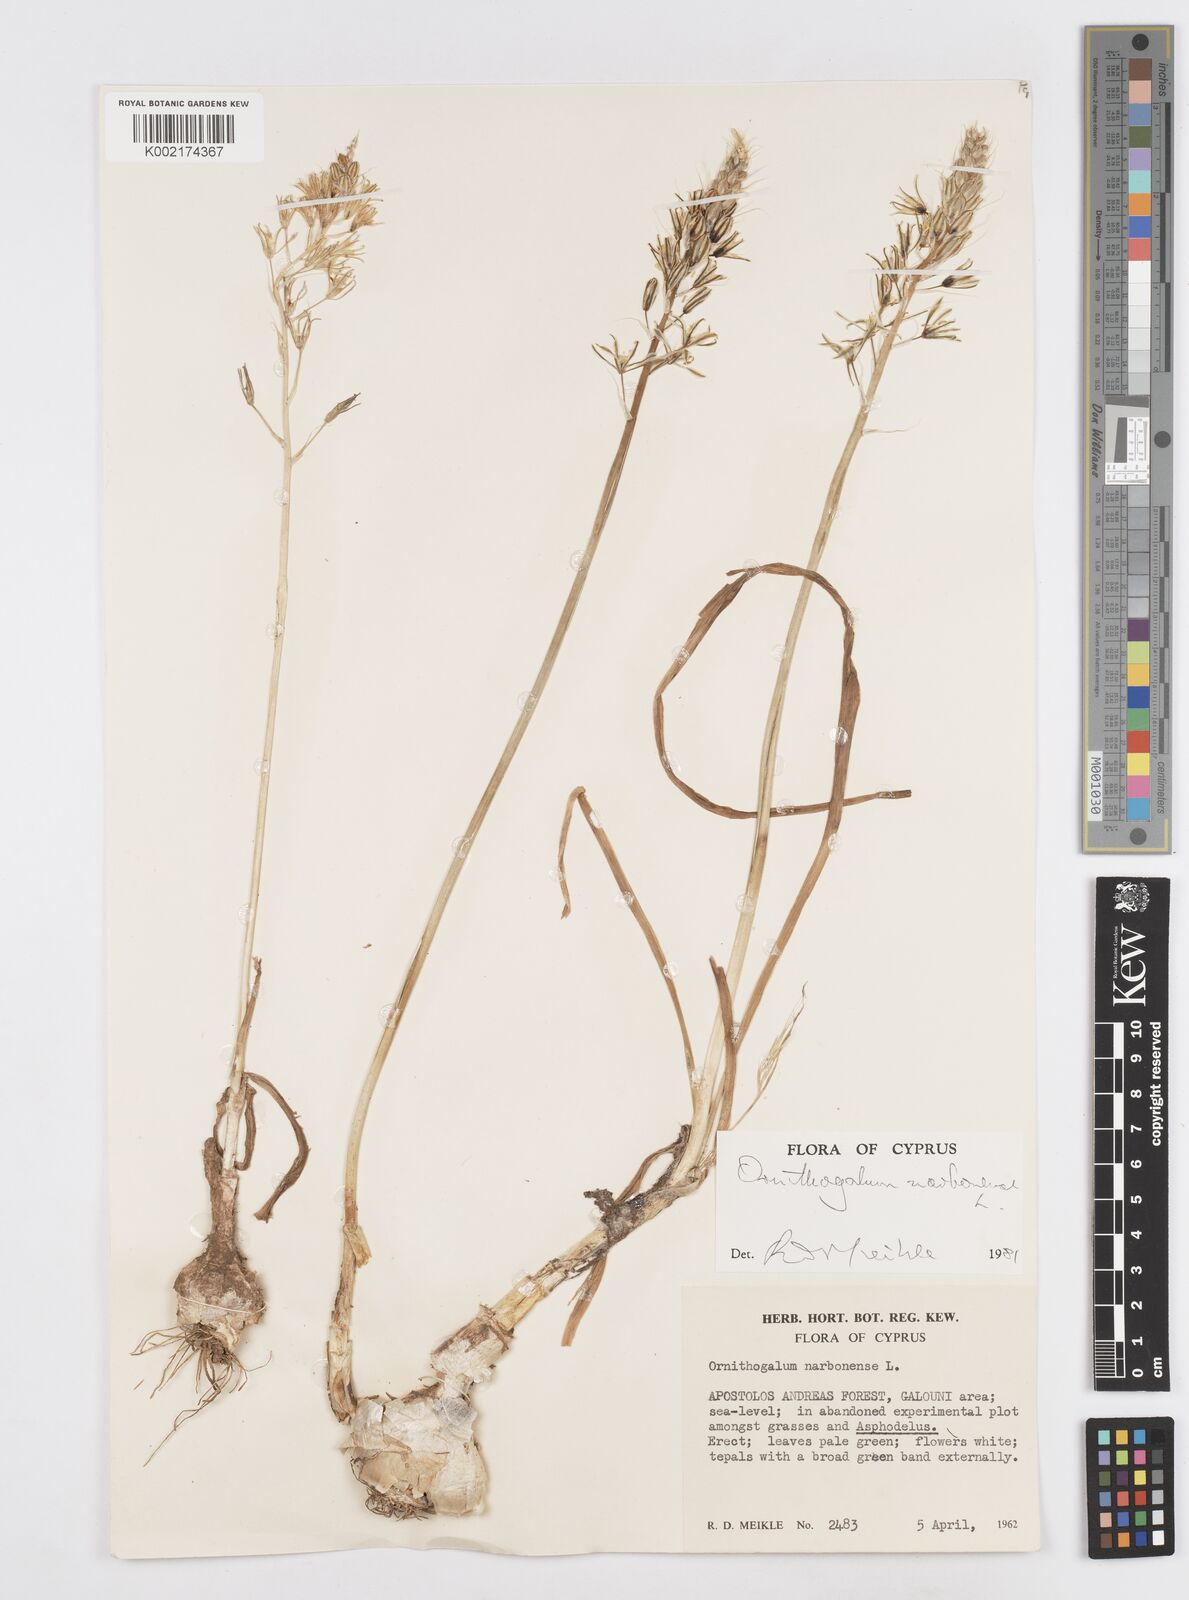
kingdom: Plantae
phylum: Tracheophyta
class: Liliopsida
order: Asparagales
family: Asparagaceae
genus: Ornithogalum
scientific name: Ornithogalum narbonense
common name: Bath-asparagus
